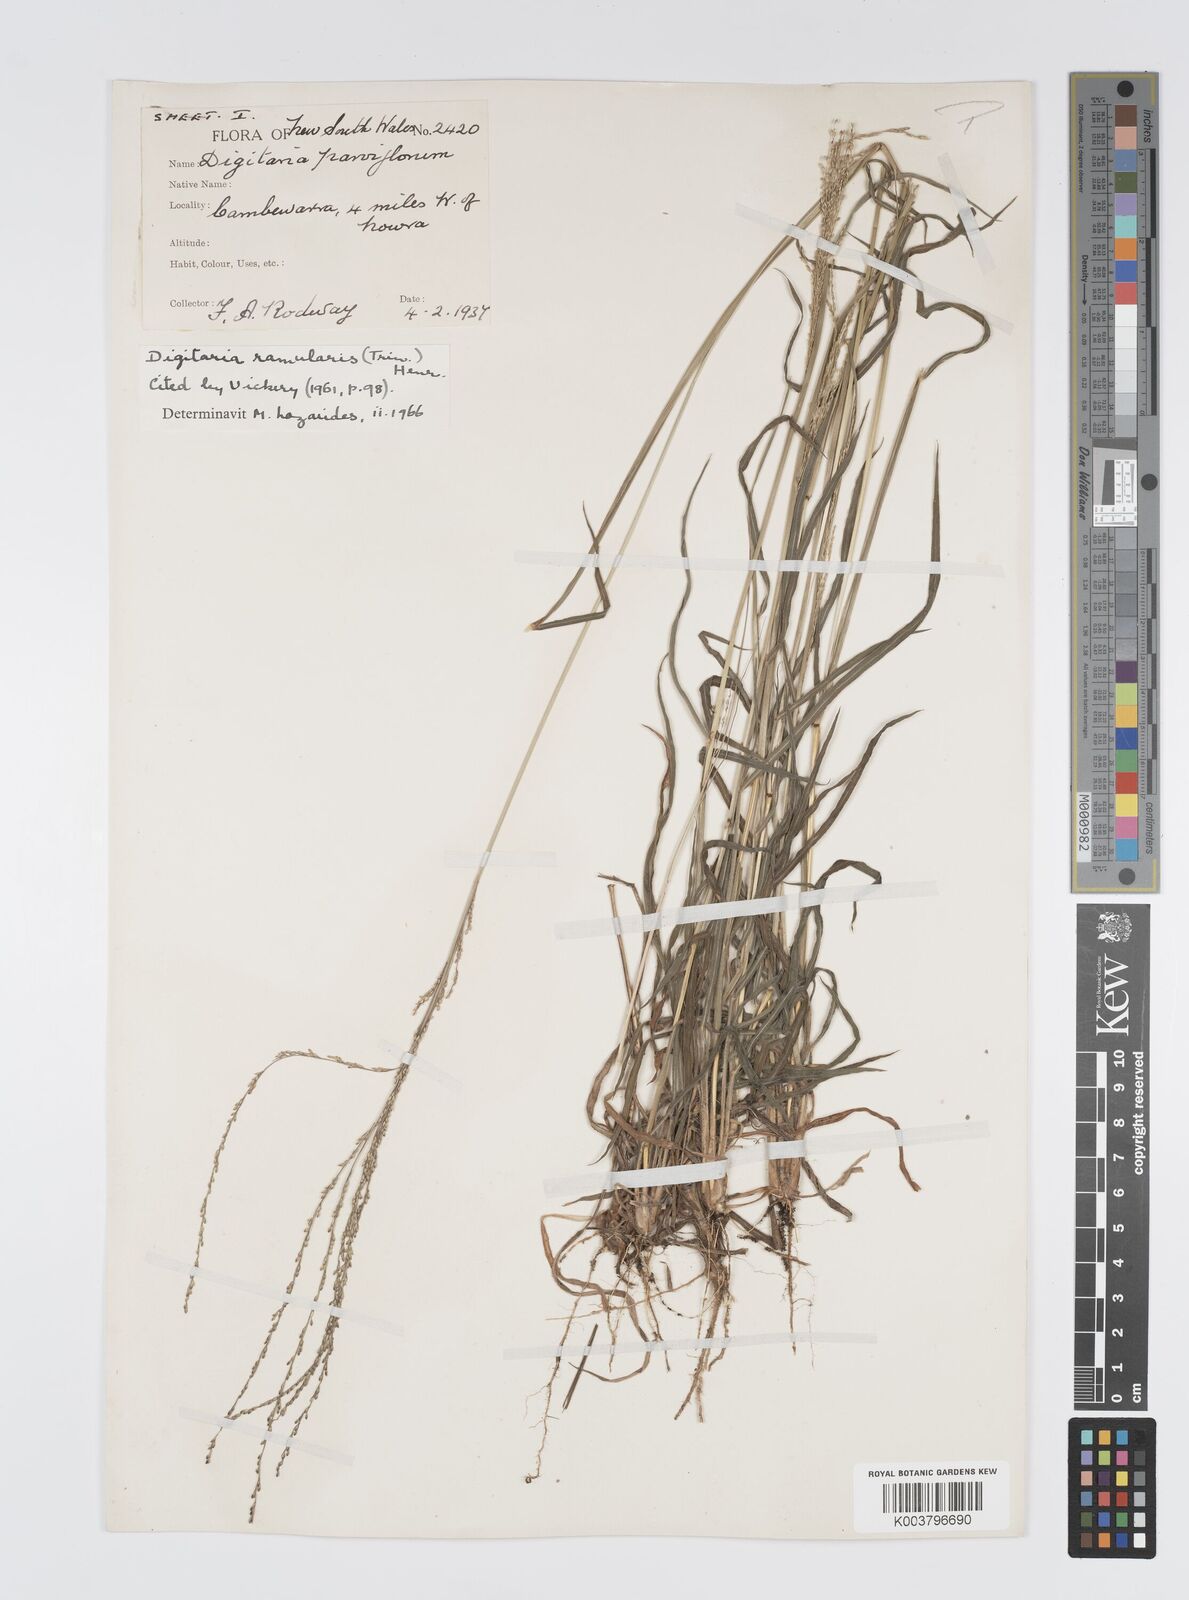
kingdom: Plantae
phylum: Tracheophyta
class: Liliopsida
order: Poales
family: Poaceae
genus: Digitaria
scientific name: Digitaria ramularis
